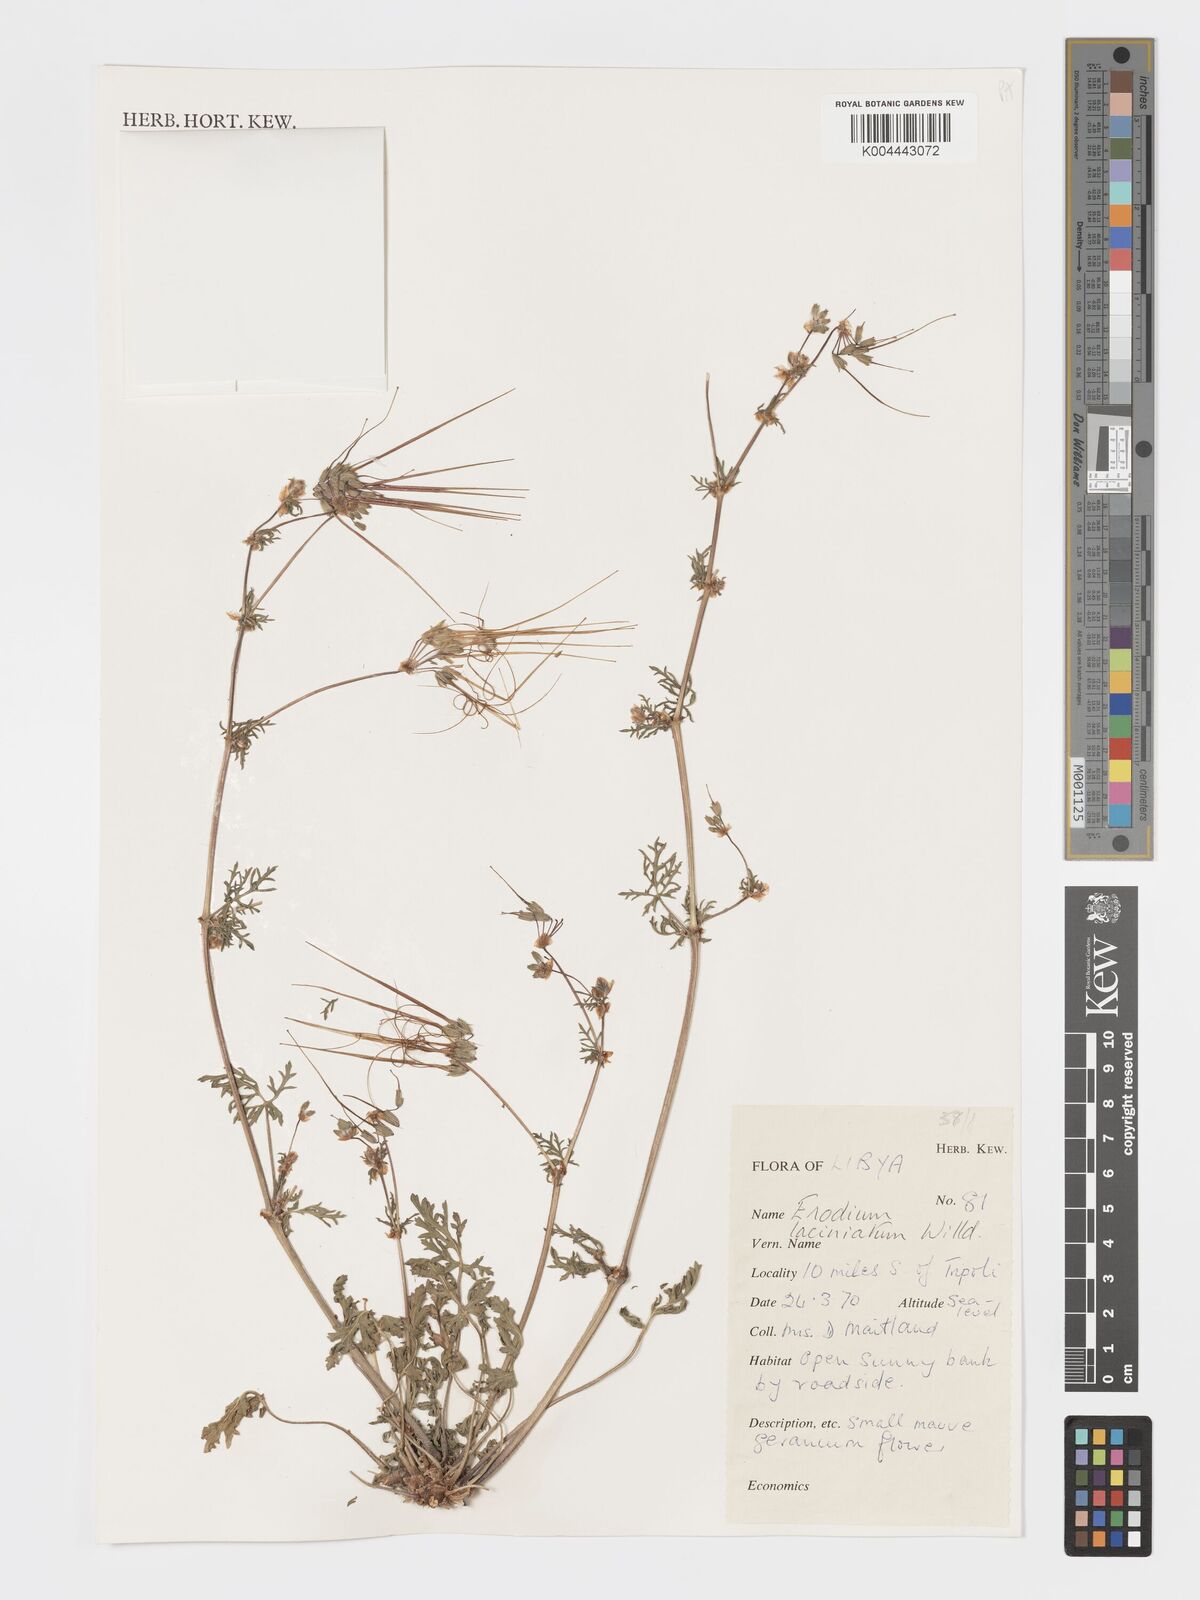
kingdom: Plantae
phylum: Tracheophyta
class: Magnoliopsida
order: Geraniales
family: Geraniaceae
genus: Erodium
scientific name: Erodium laciniatum
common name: Cutleaf stork's bill
